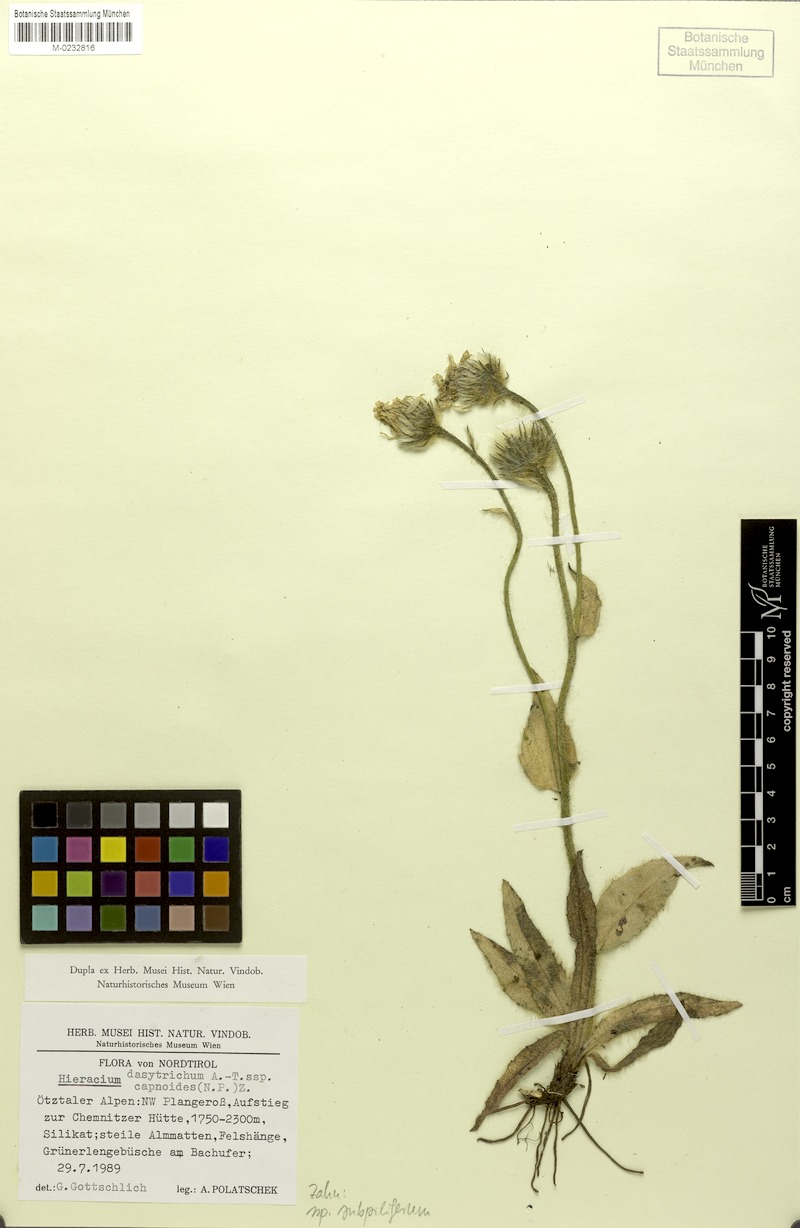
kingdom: Plantae
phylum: Tracheophyta
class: Magnoliopsida
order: Asterales
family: Asteraceae
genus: Hieracium
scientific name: Hieracium dasytrichum
